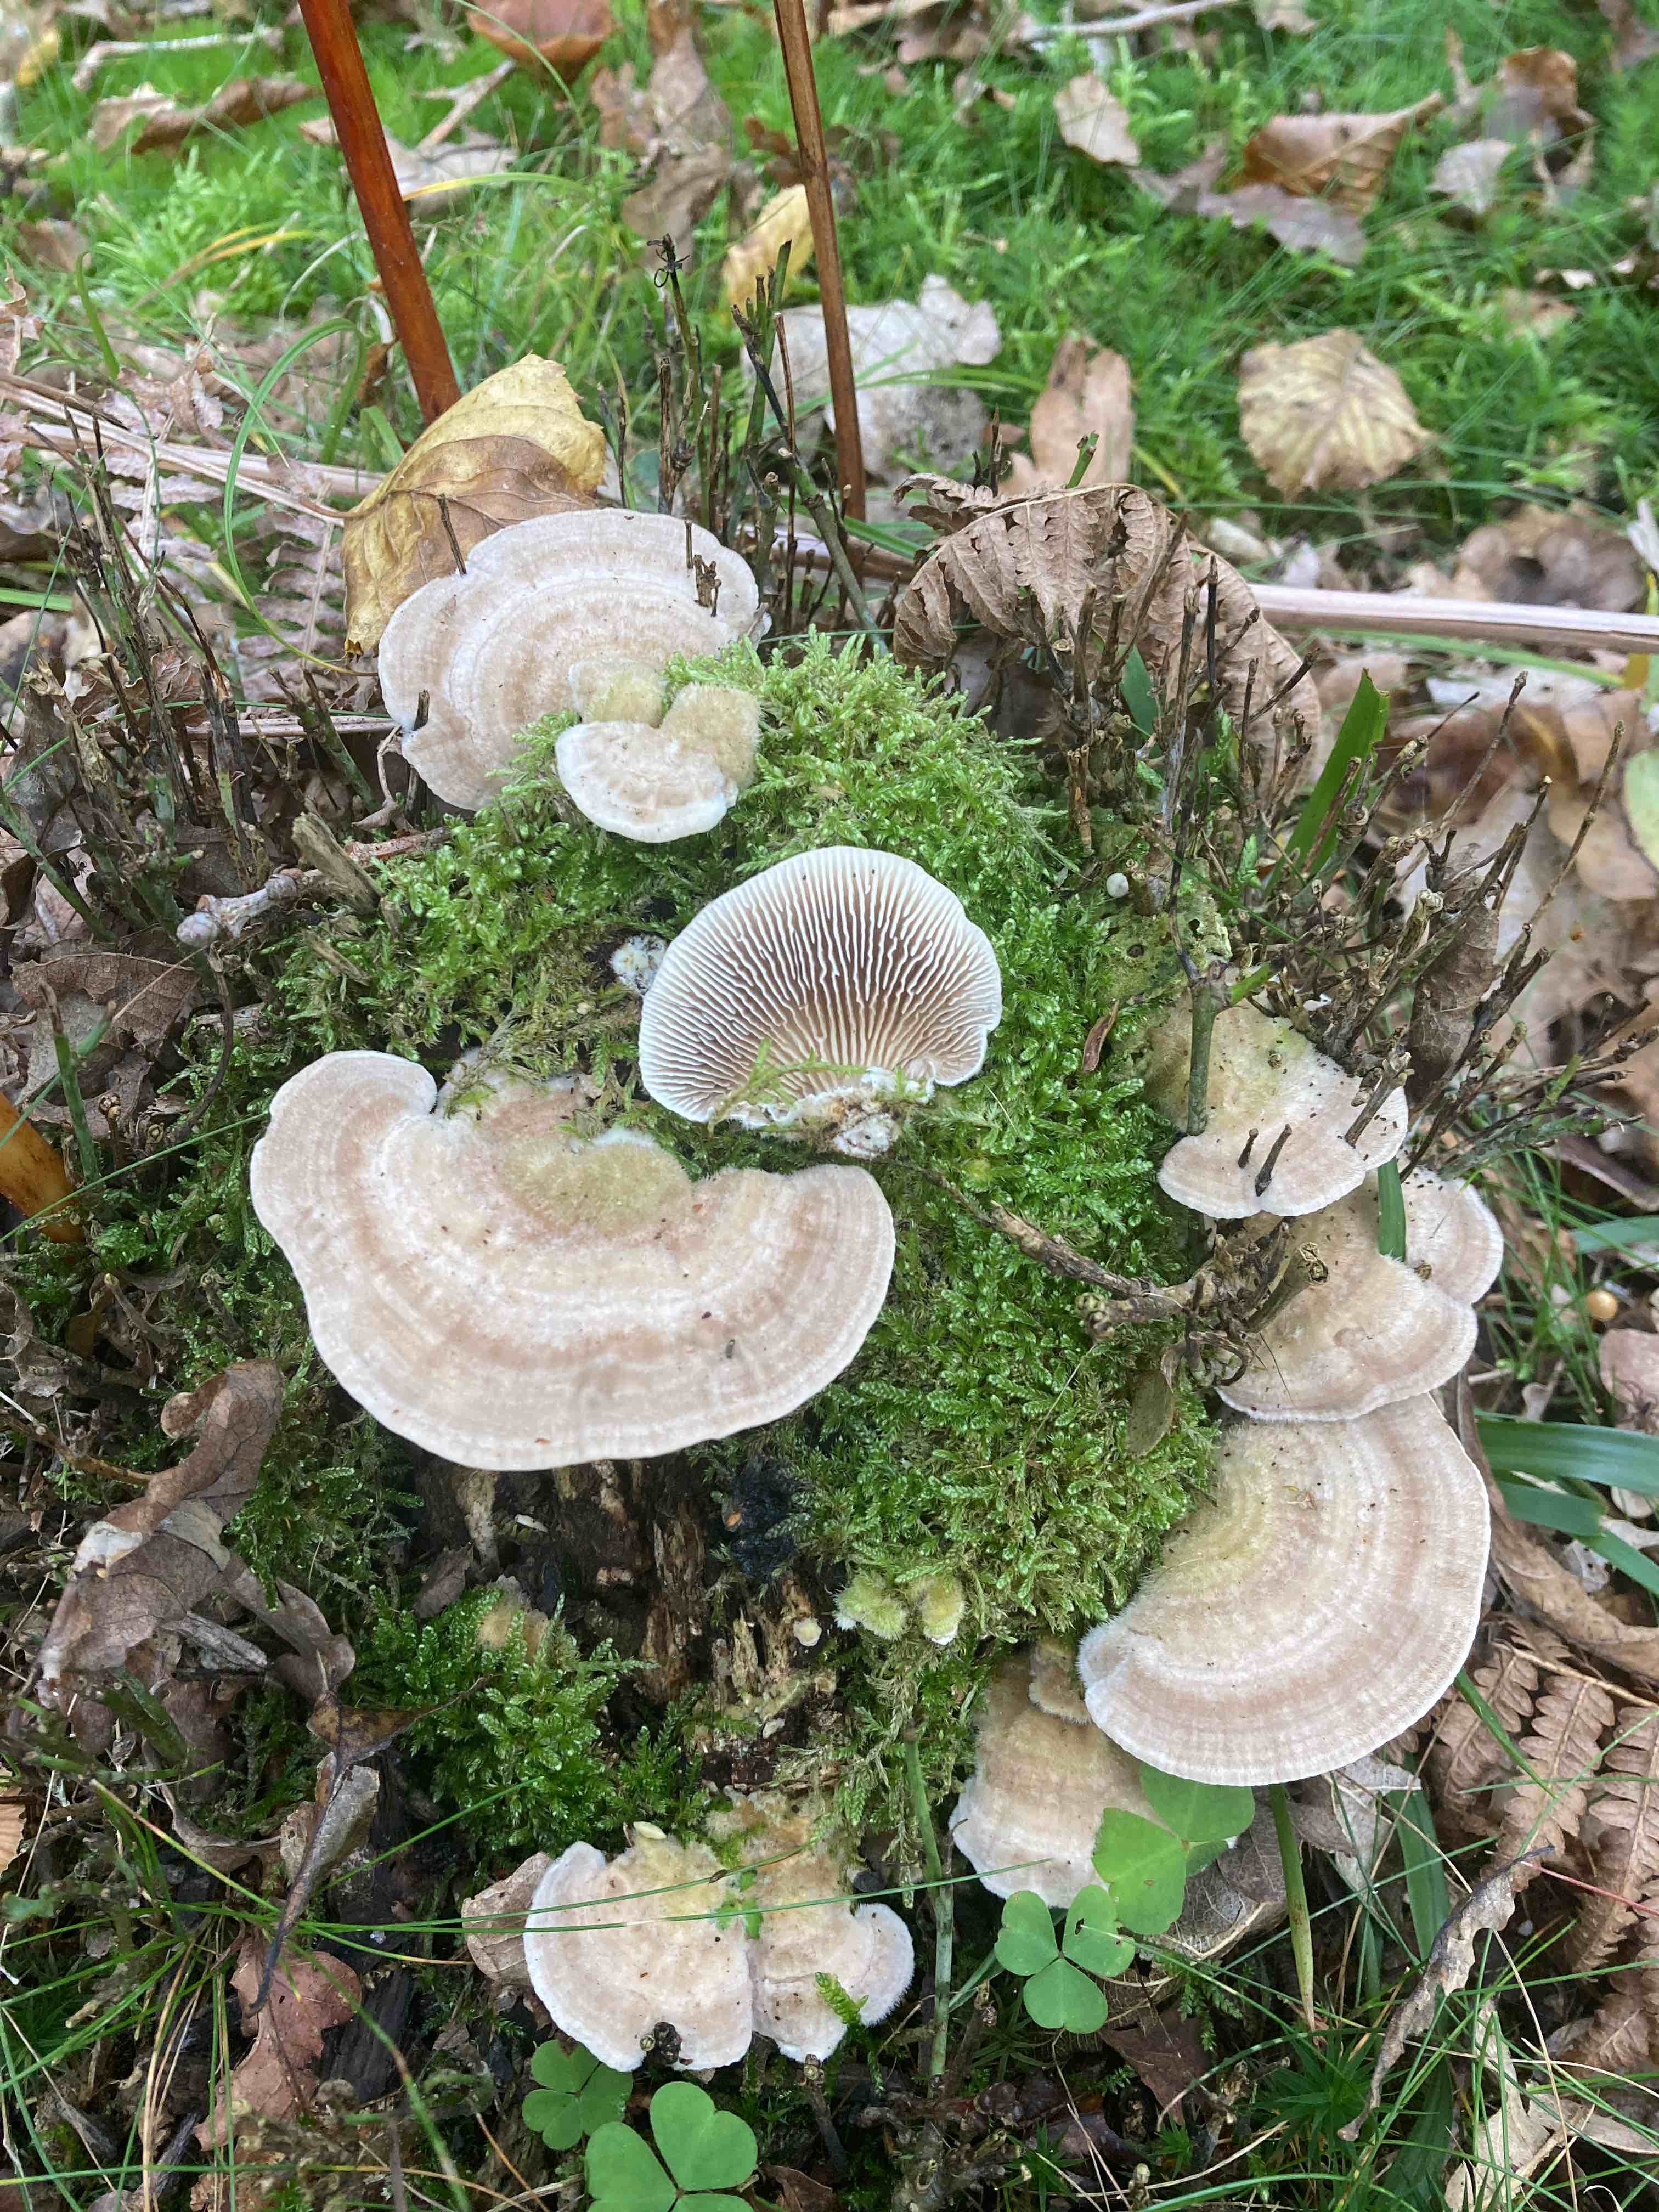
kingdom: Fungi
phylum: Basidiomycota
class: Agaricomycetes
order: Polyporales
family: Polyporaceae
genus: Lenzites
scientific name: Lenzites betulinus
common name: birke-læderporesvamp
